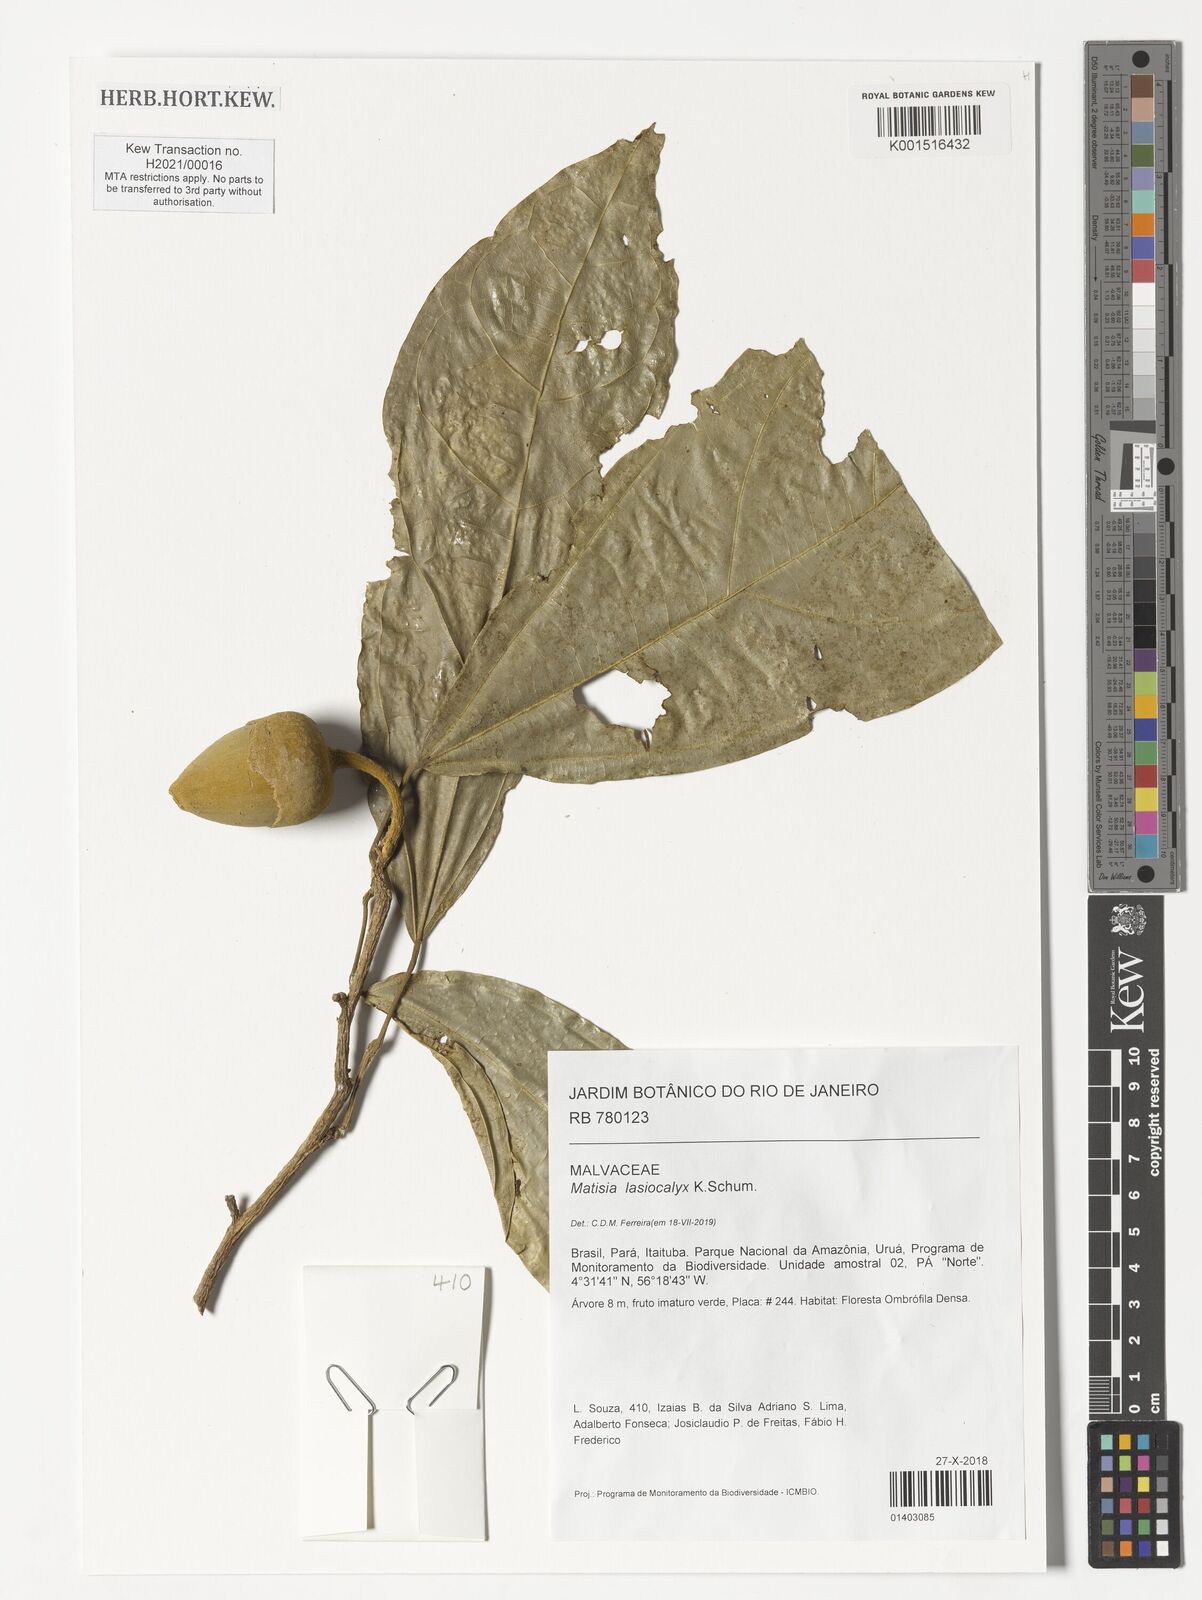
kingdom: Plantae
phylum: Tracheophyta
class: Magnoliopsida
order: Apiales
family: Araliaceae
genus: Didymopanax
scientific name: Didymopanax longepetiolatus
